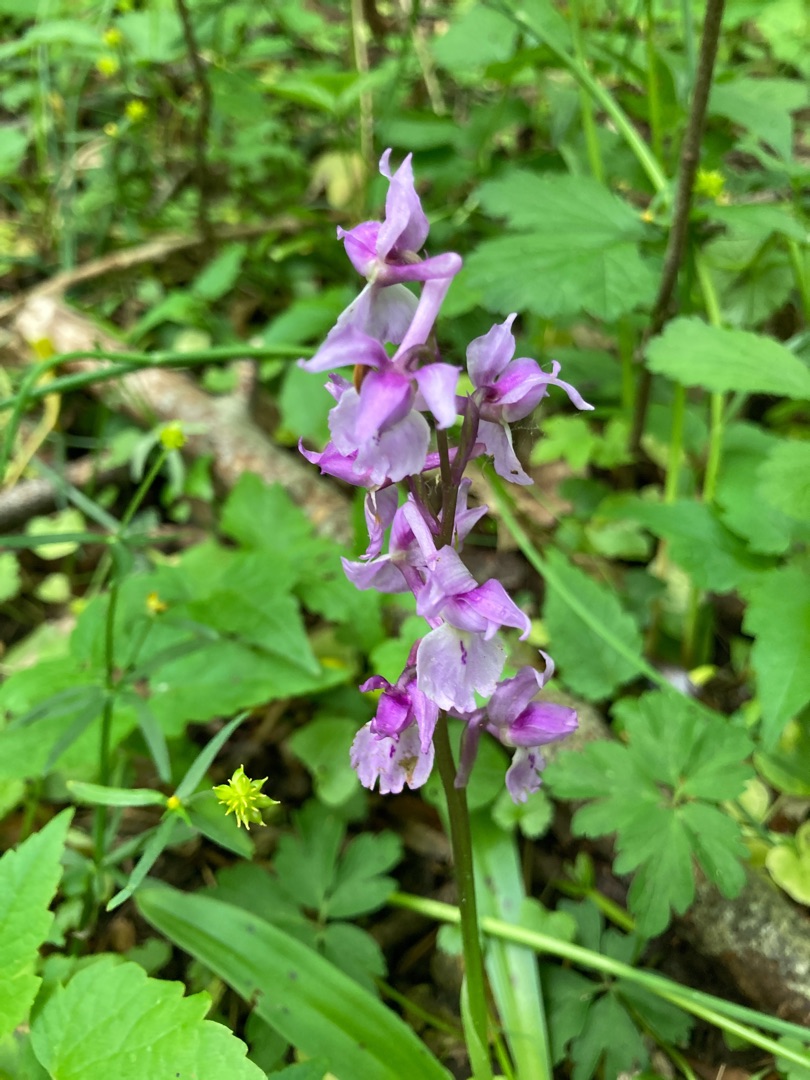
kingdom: Plantae
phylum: Tracheophyta
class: Liliopsida
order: Asparagales
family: Orchidaceae
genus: Orchis
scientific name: Orchis mascula
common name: Tyndakset gøgeurt
